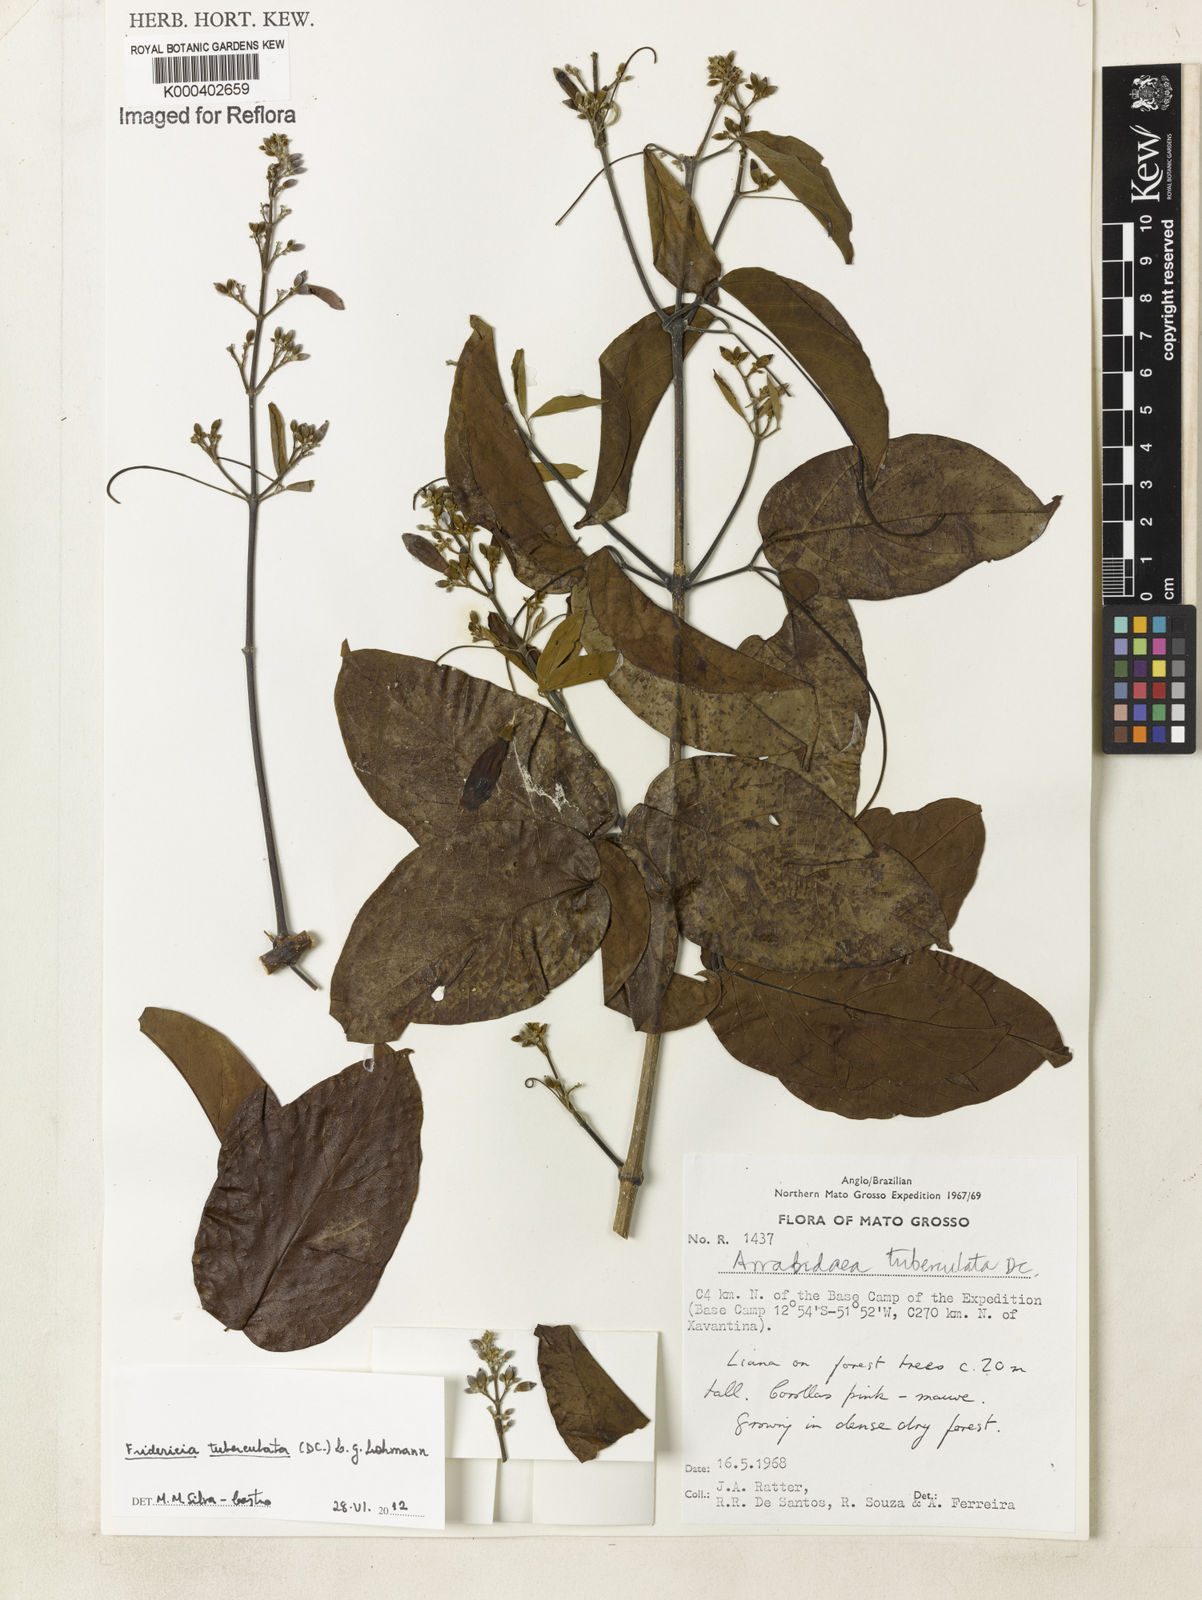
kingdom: Plantae
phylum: Tracheophyta
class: Magnoliopsida
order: Lamiales
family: Bignoniaceae
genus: Fridericia
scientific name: Fridericia tuberculata
